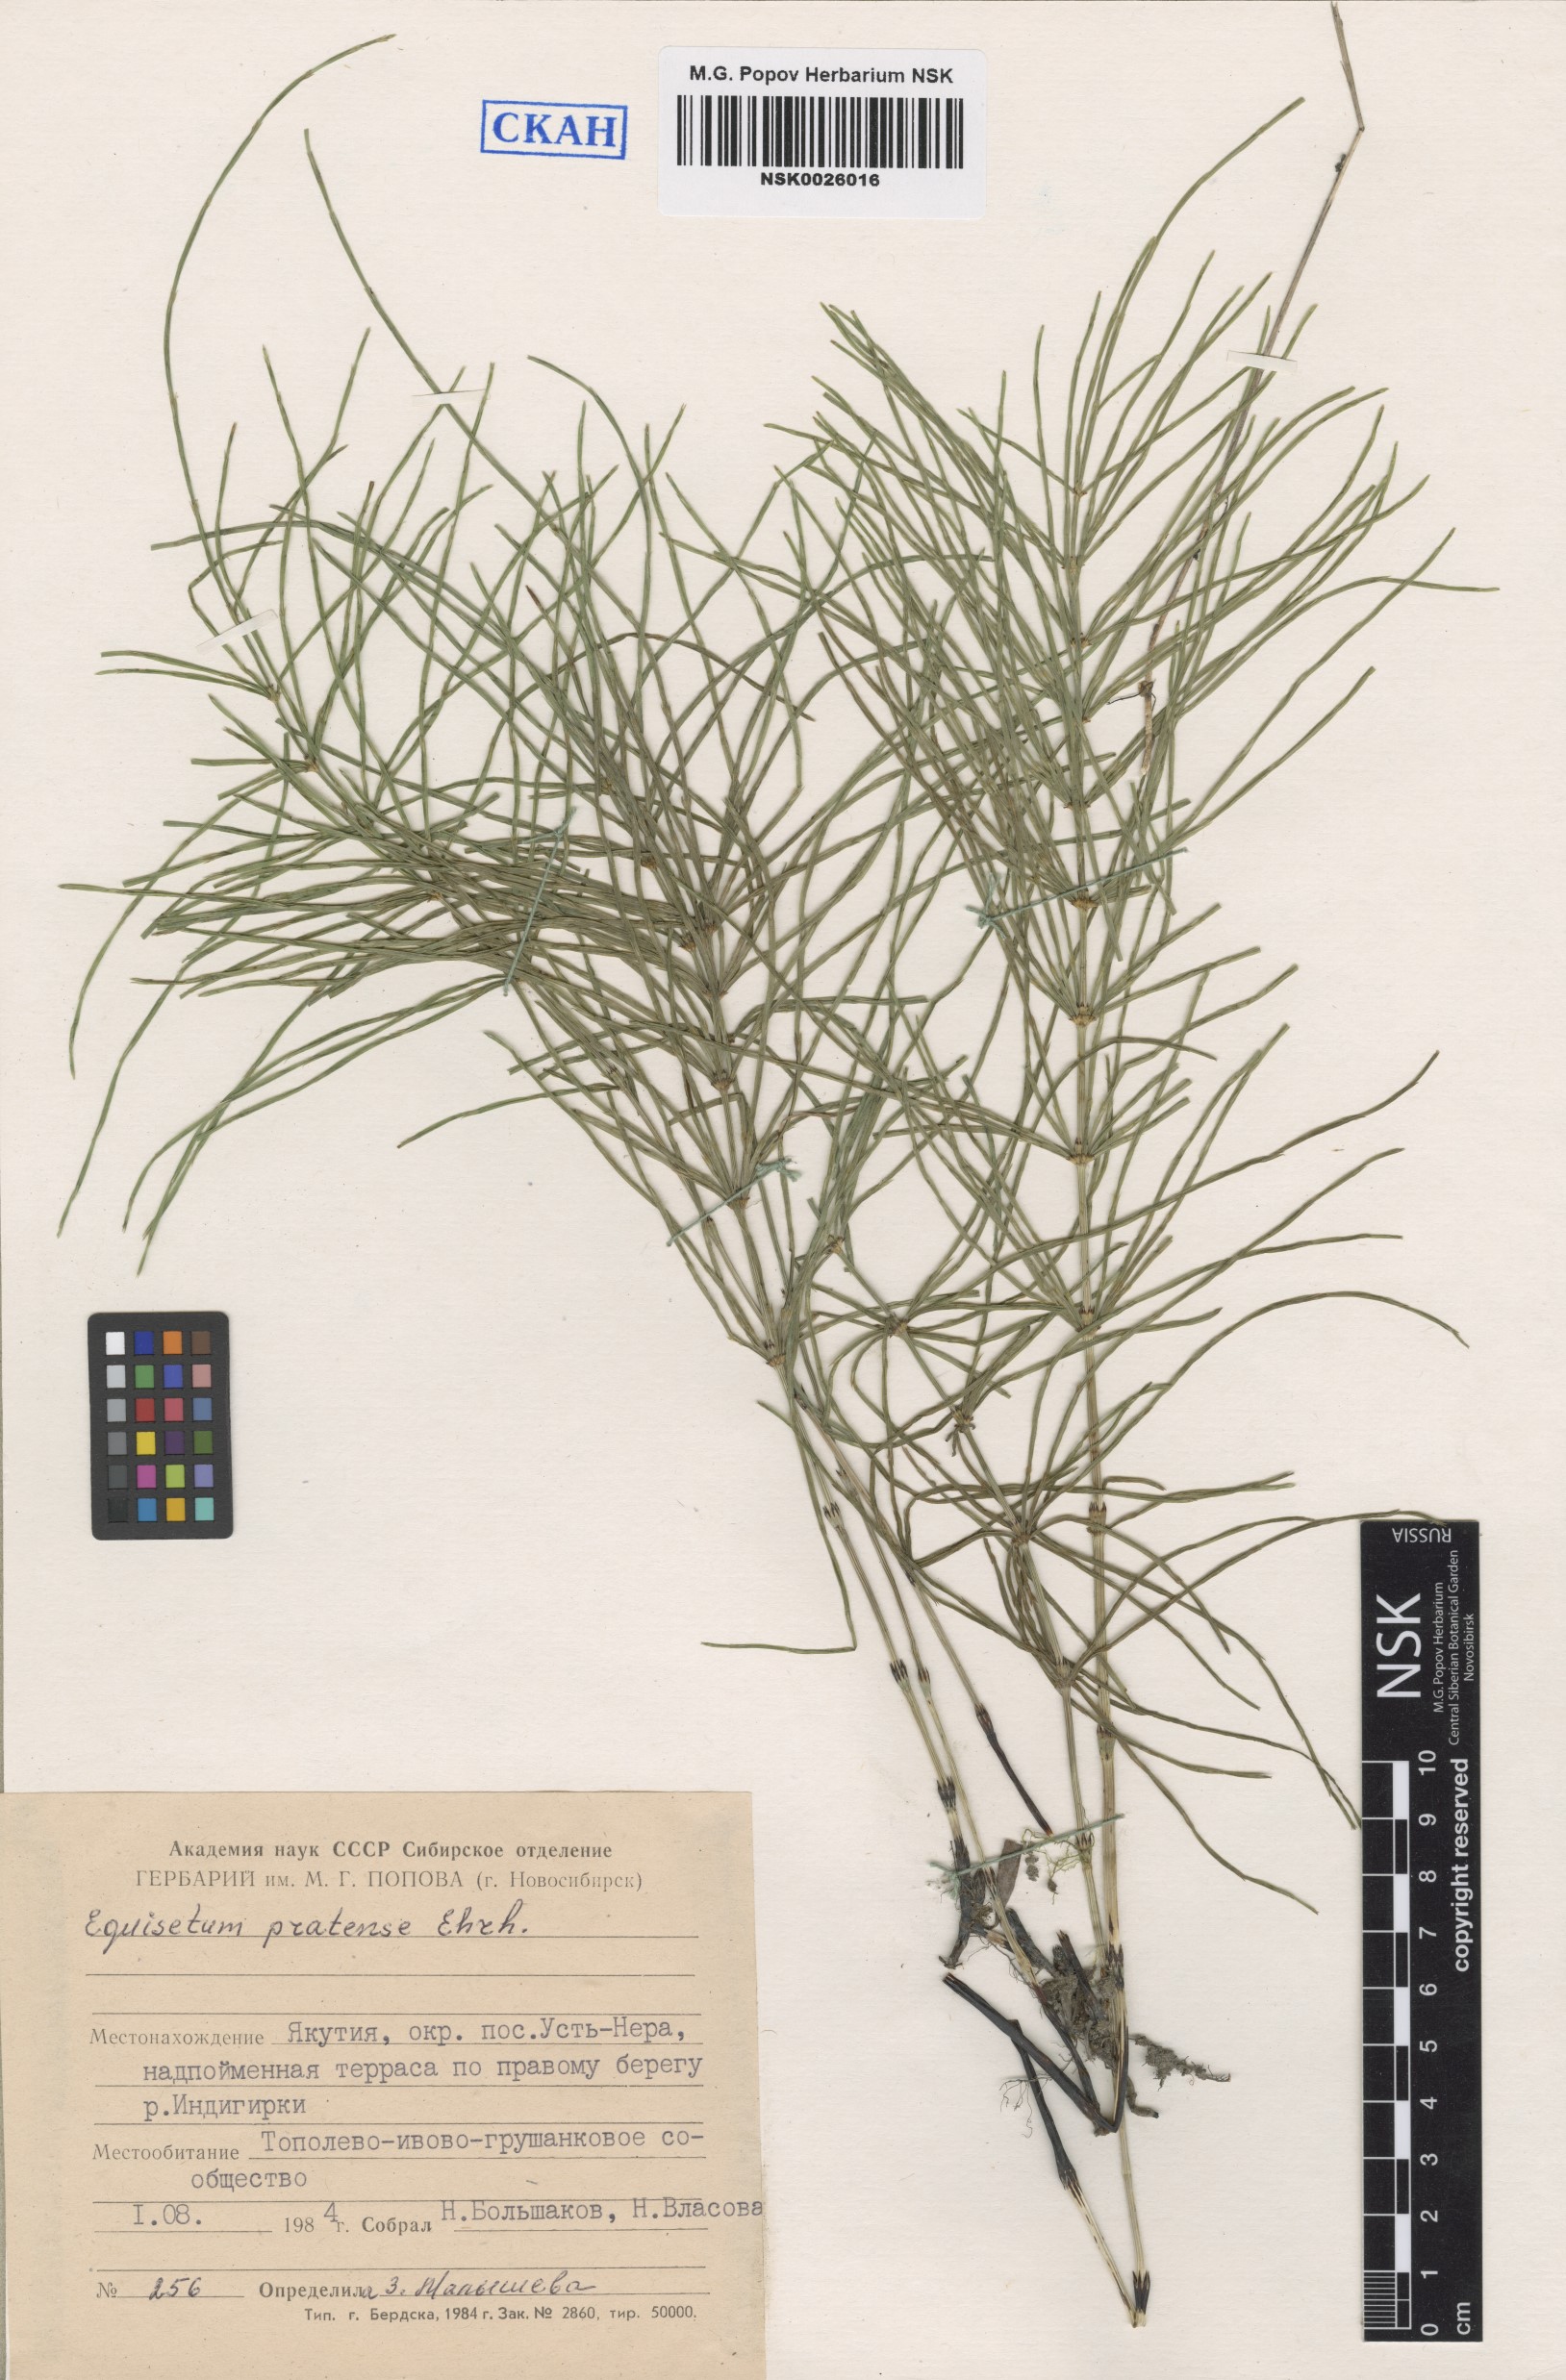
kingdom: Plantae
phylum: Tracheophyta
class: Polypodiopsida
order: Equisetales
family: Equisetaceae
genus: Equisetum
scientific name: Equisetum pratense
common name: Meadow horsetail
